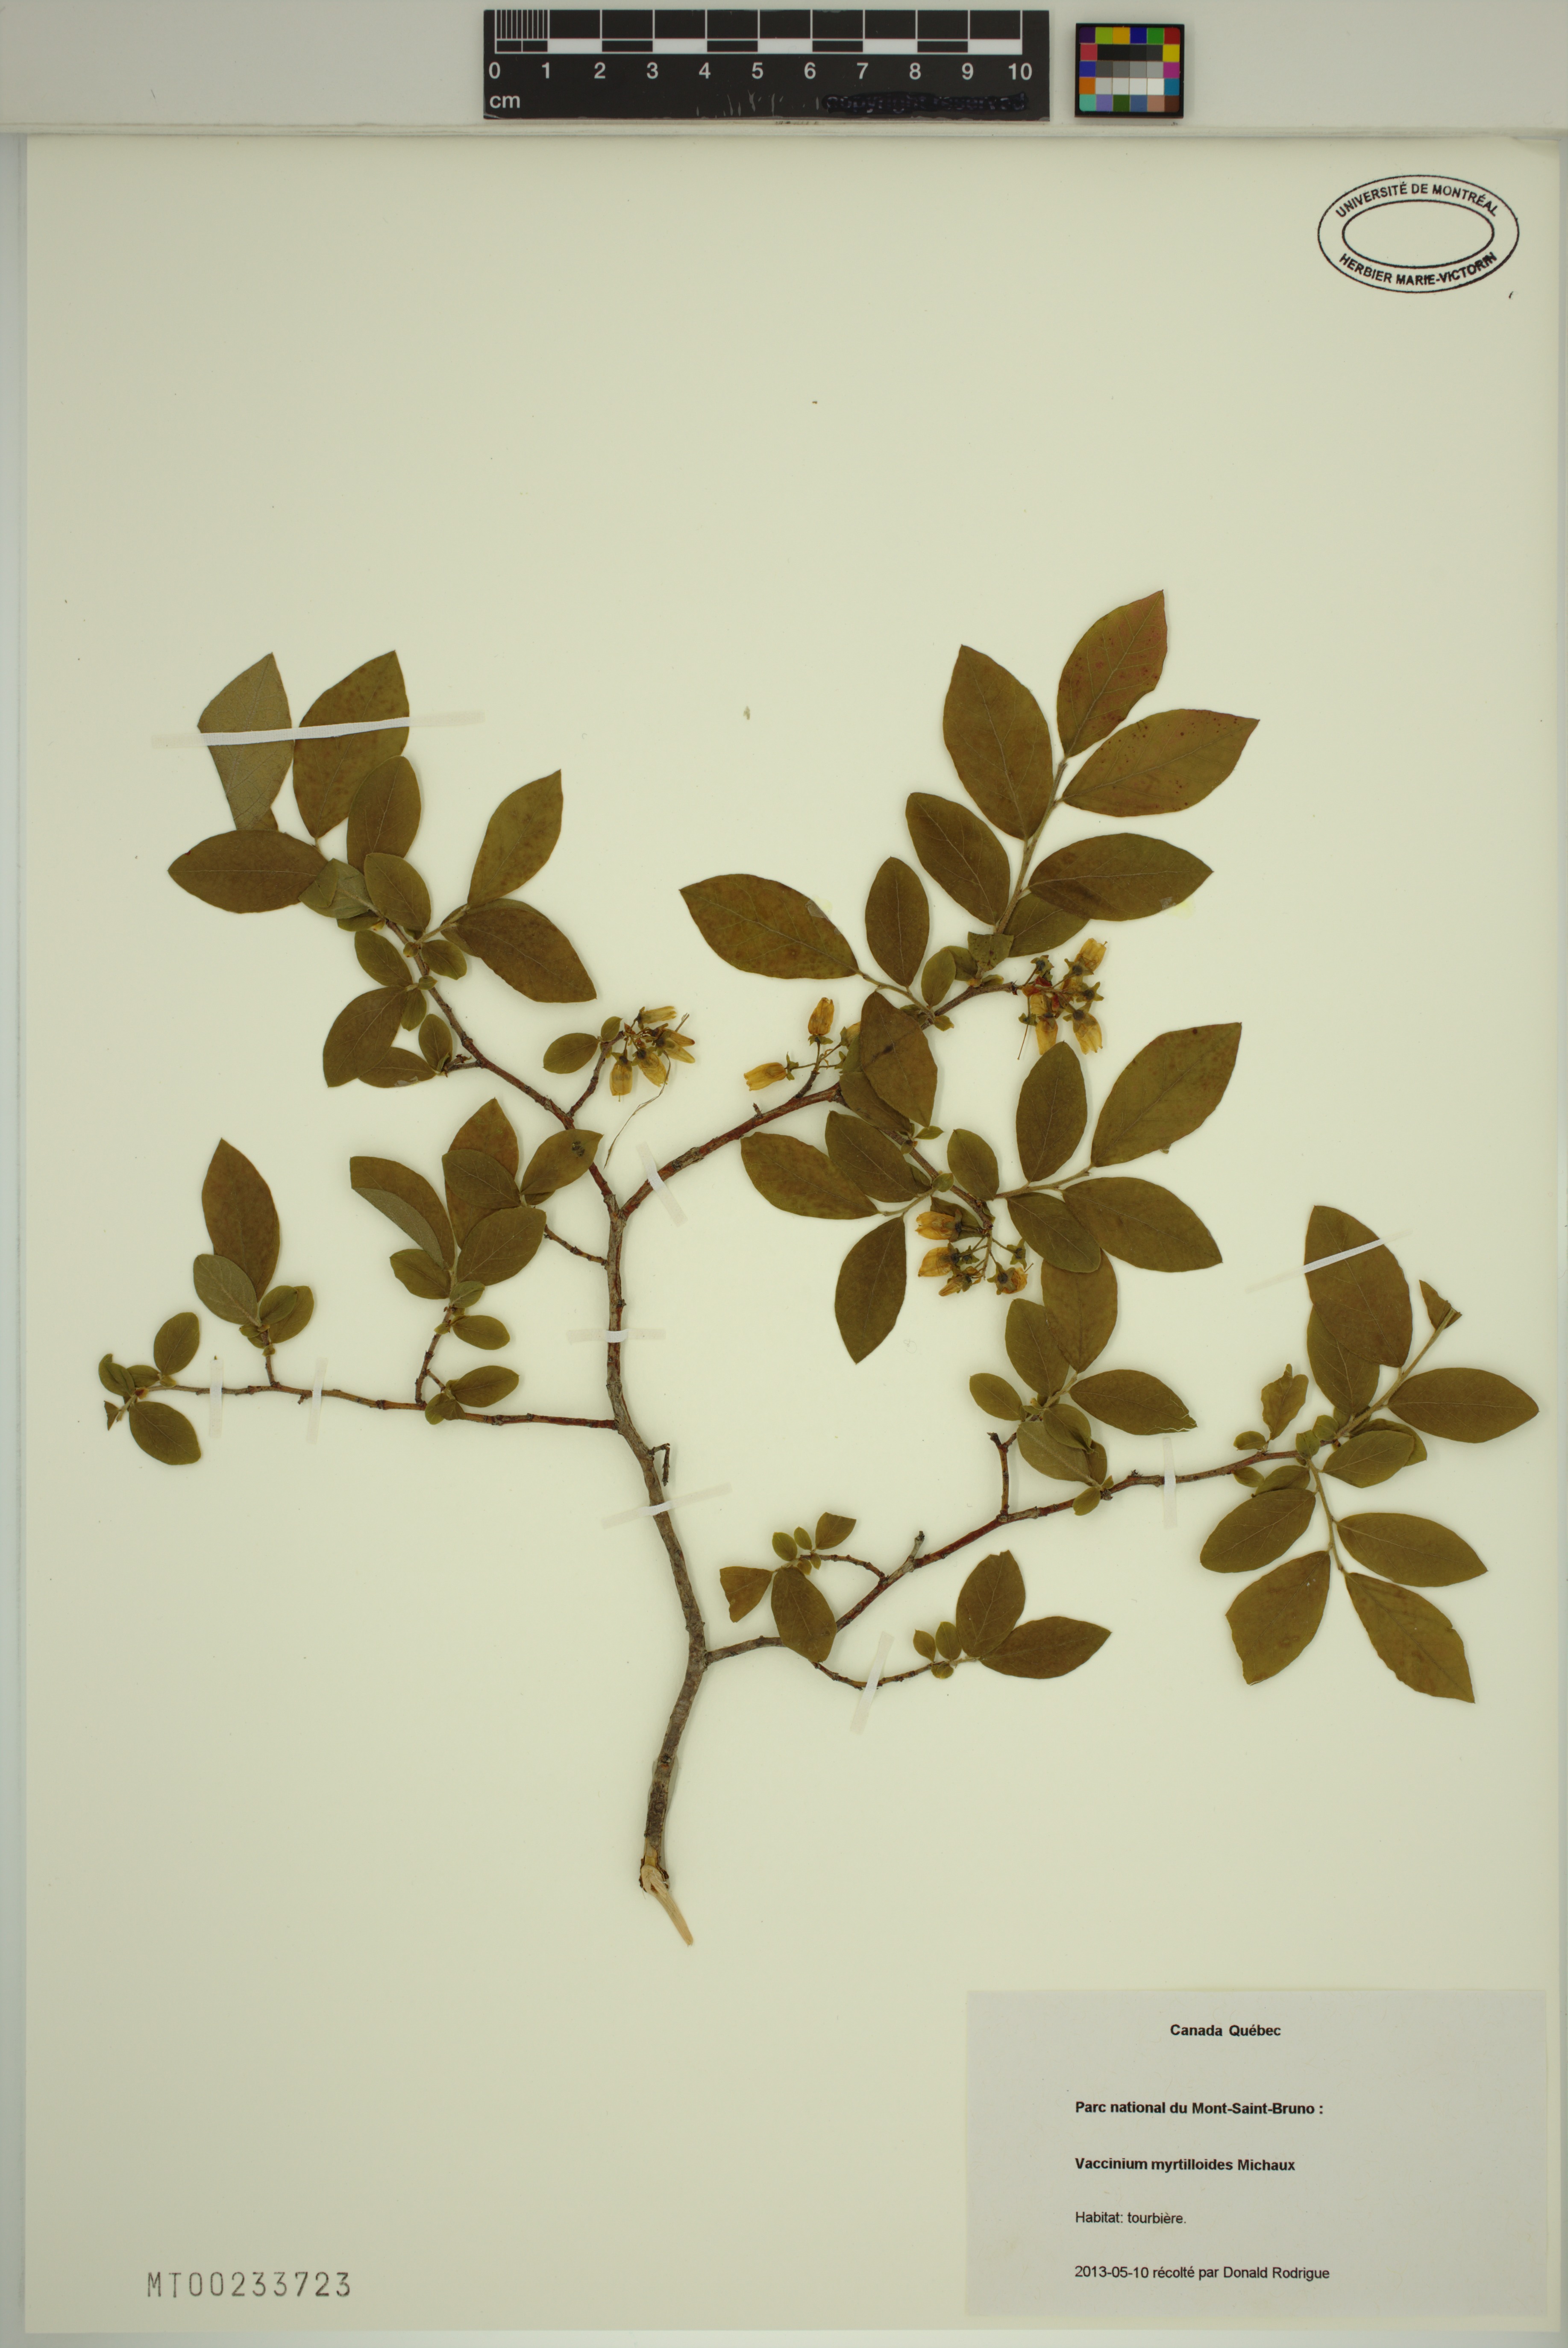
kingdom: Plantae
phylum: Tracheophyta
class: Magnoliopsida
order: Ericales
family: Ericaceae
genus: Vaccinium
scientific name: Vaccinium myrtilloides
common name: Canada blueberry
